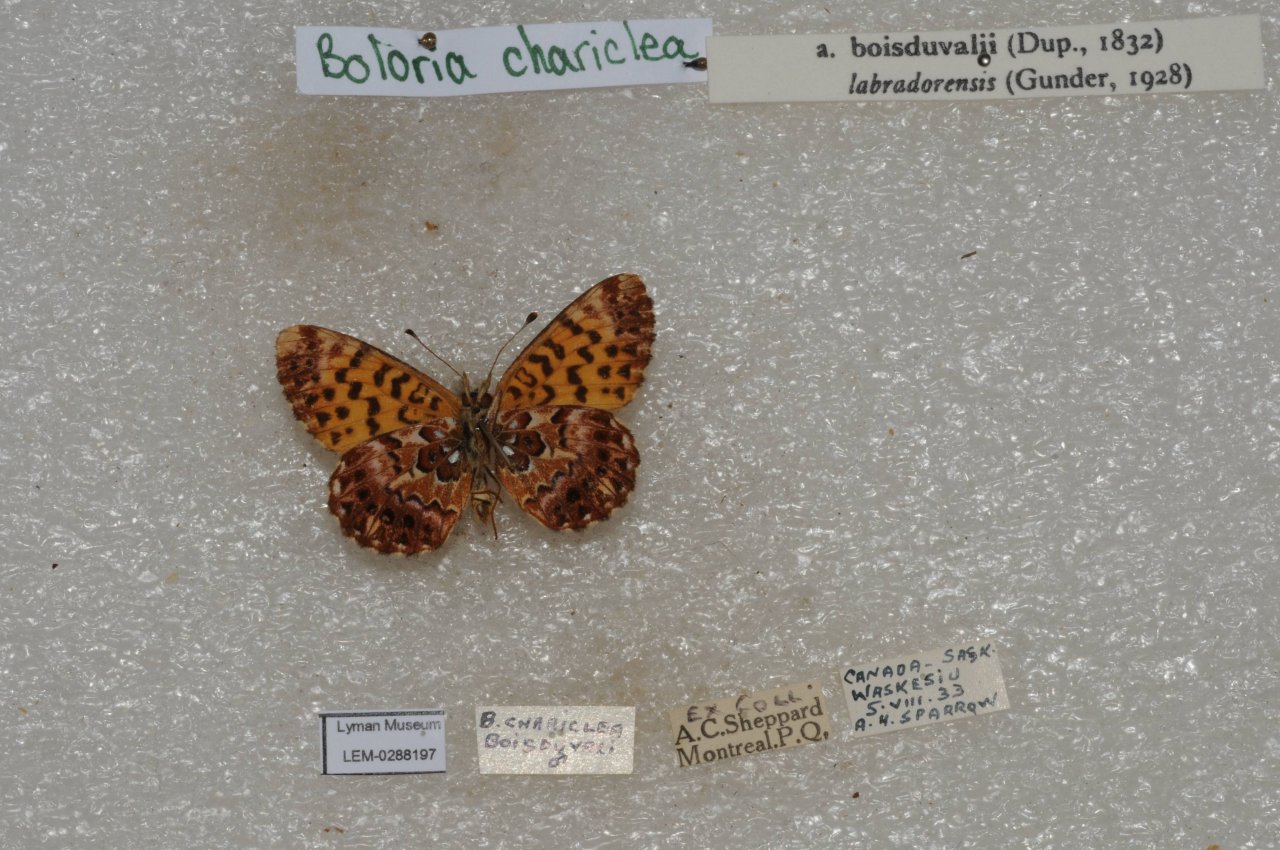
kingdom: Animalia
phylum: Arthropoda
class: Insecta
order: Lepidoptera
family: Nymphalidae
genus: Boloria
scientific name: Boloria chariclea
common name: Arctic Fritillary
